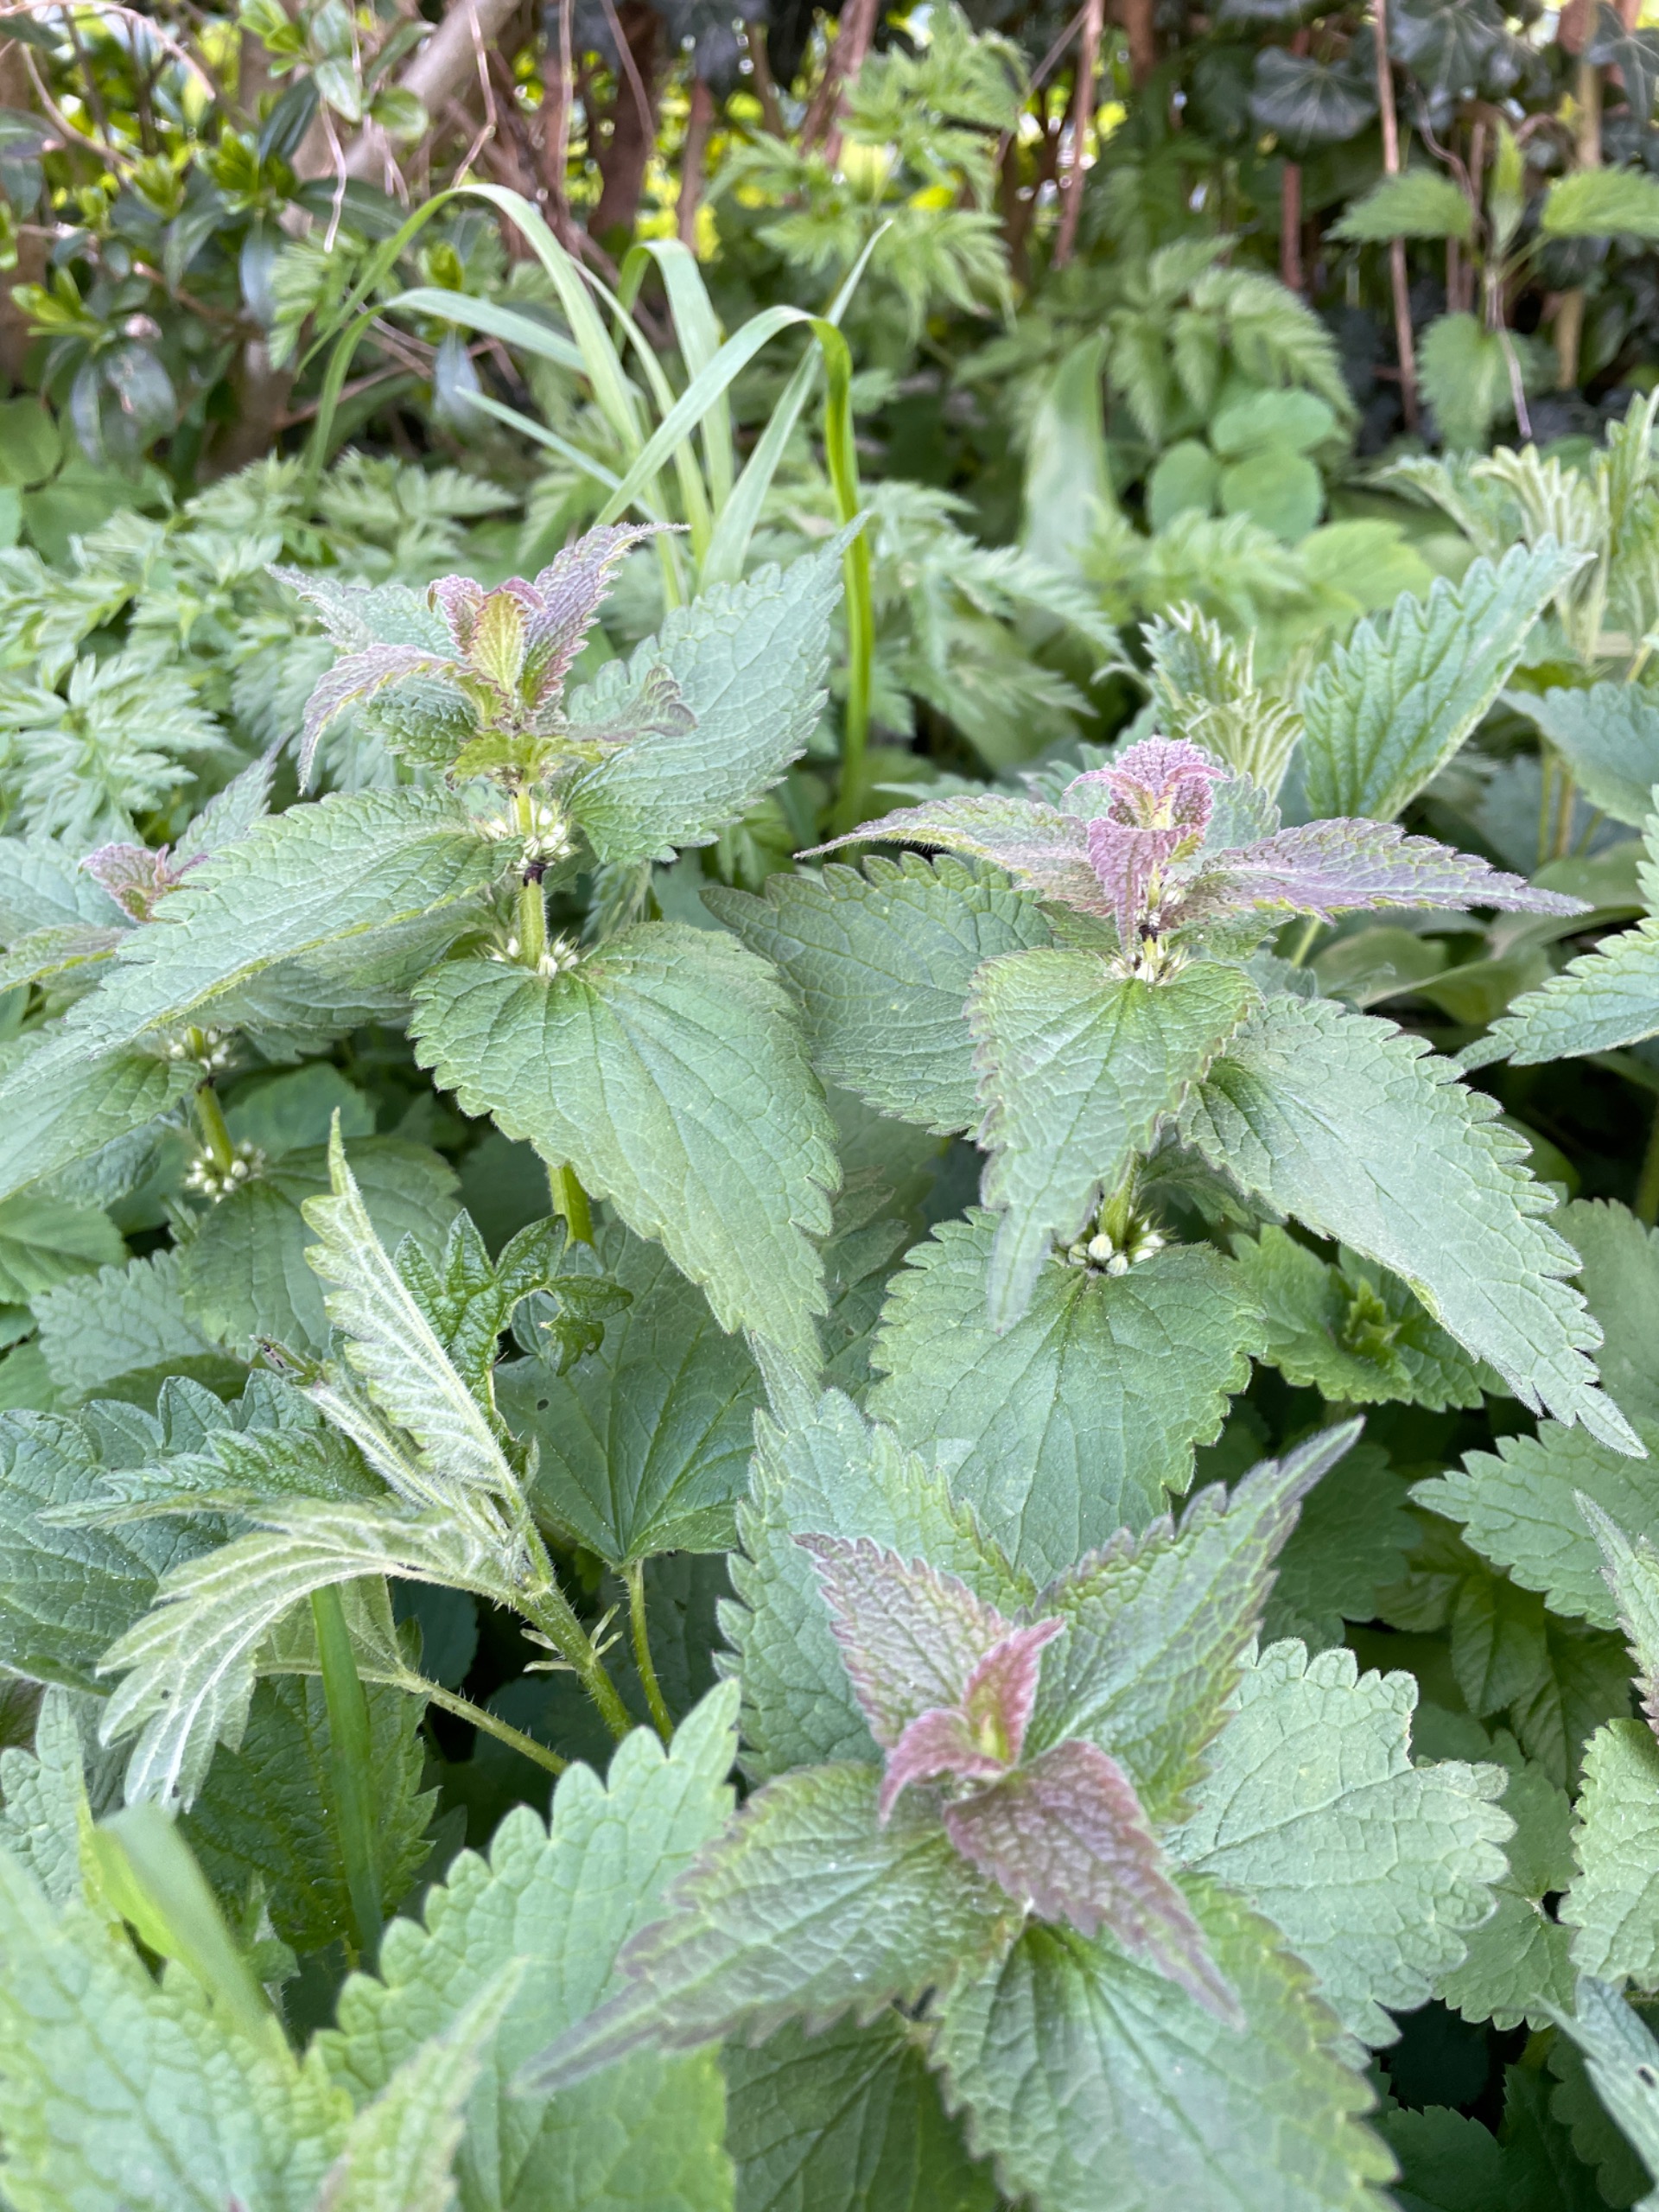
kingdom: Plantae
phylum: Tracheophyta
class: Magnoliopsida
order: Lamiales
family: Lamiaceae
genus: Lamium
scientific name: Lamium album
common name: Døvnælde
